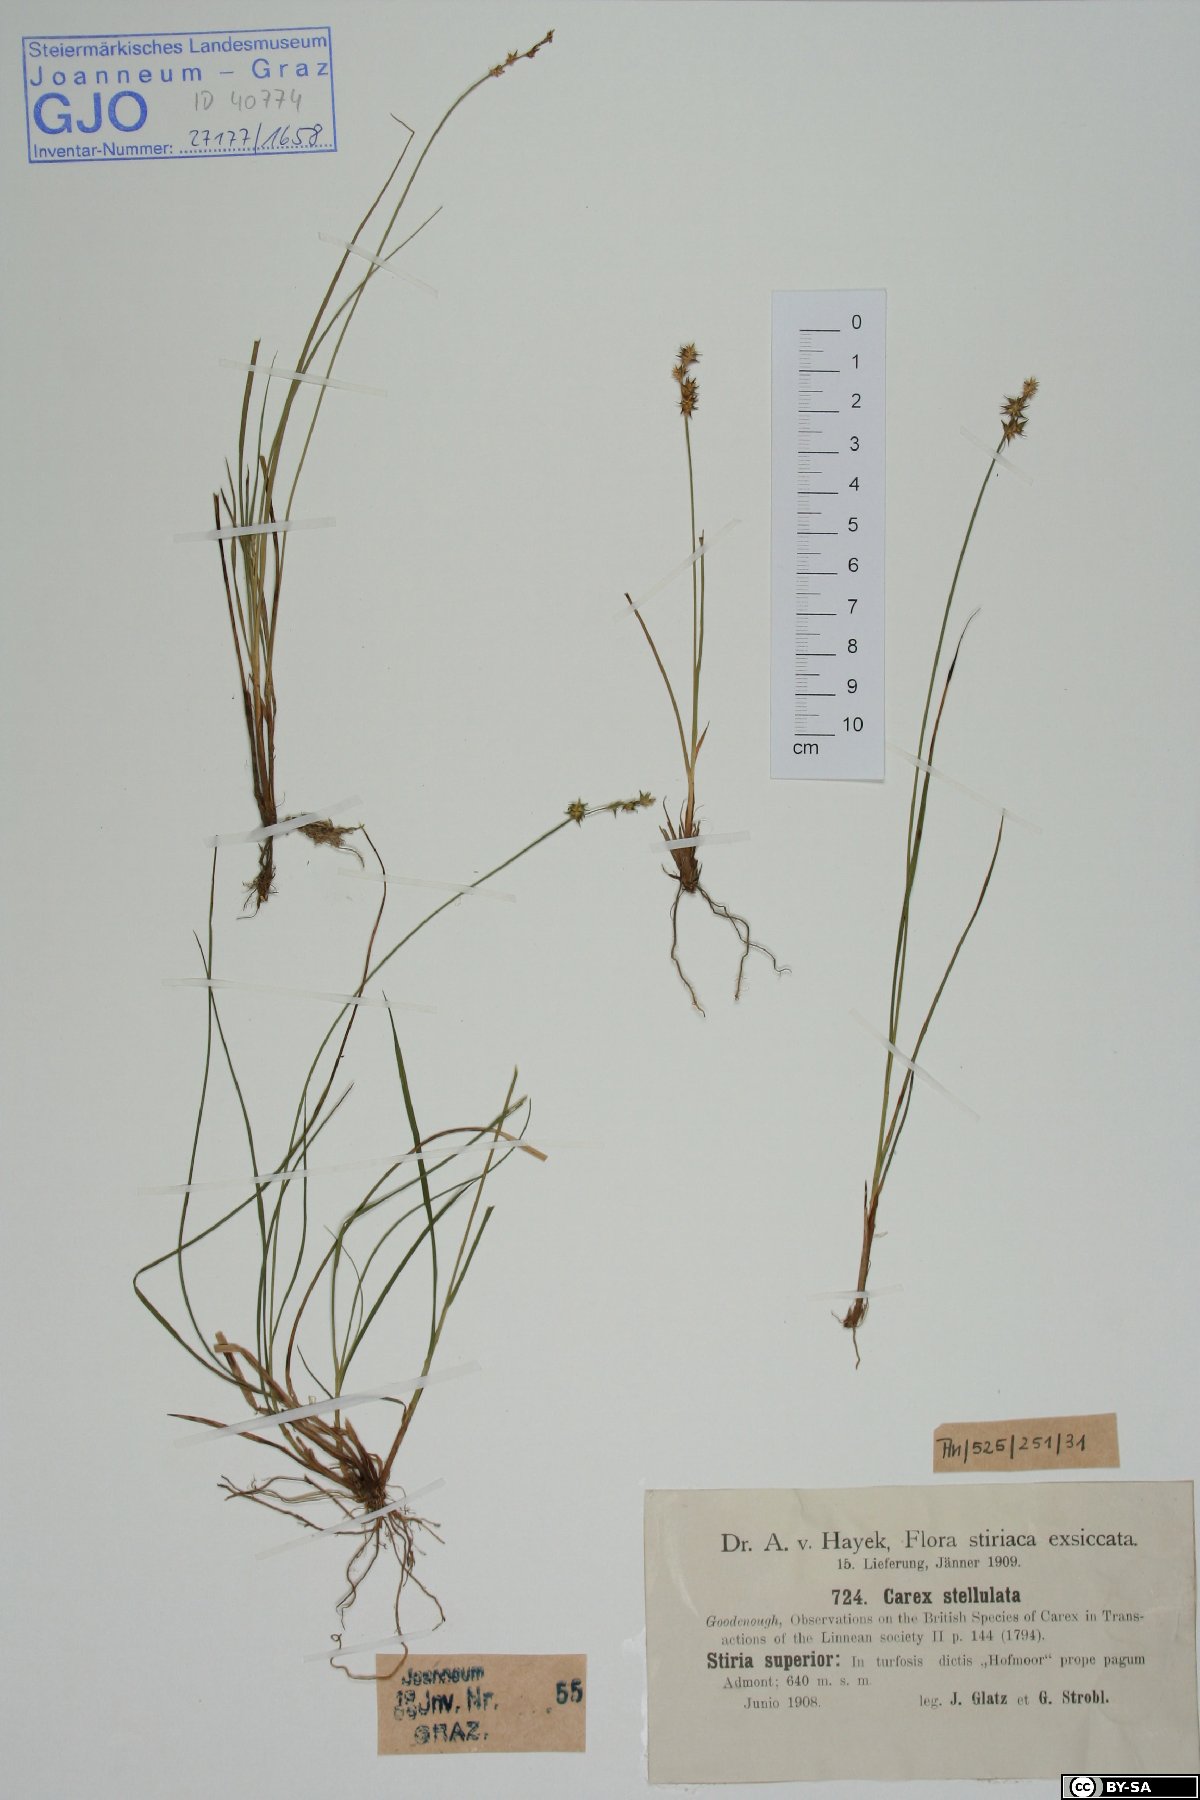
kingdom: Plantae
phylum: Tracheophyta
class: Liliopsida
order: Poales
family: Cyperaceae
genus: Carex
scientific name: Carex echinata
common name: Star sedge
